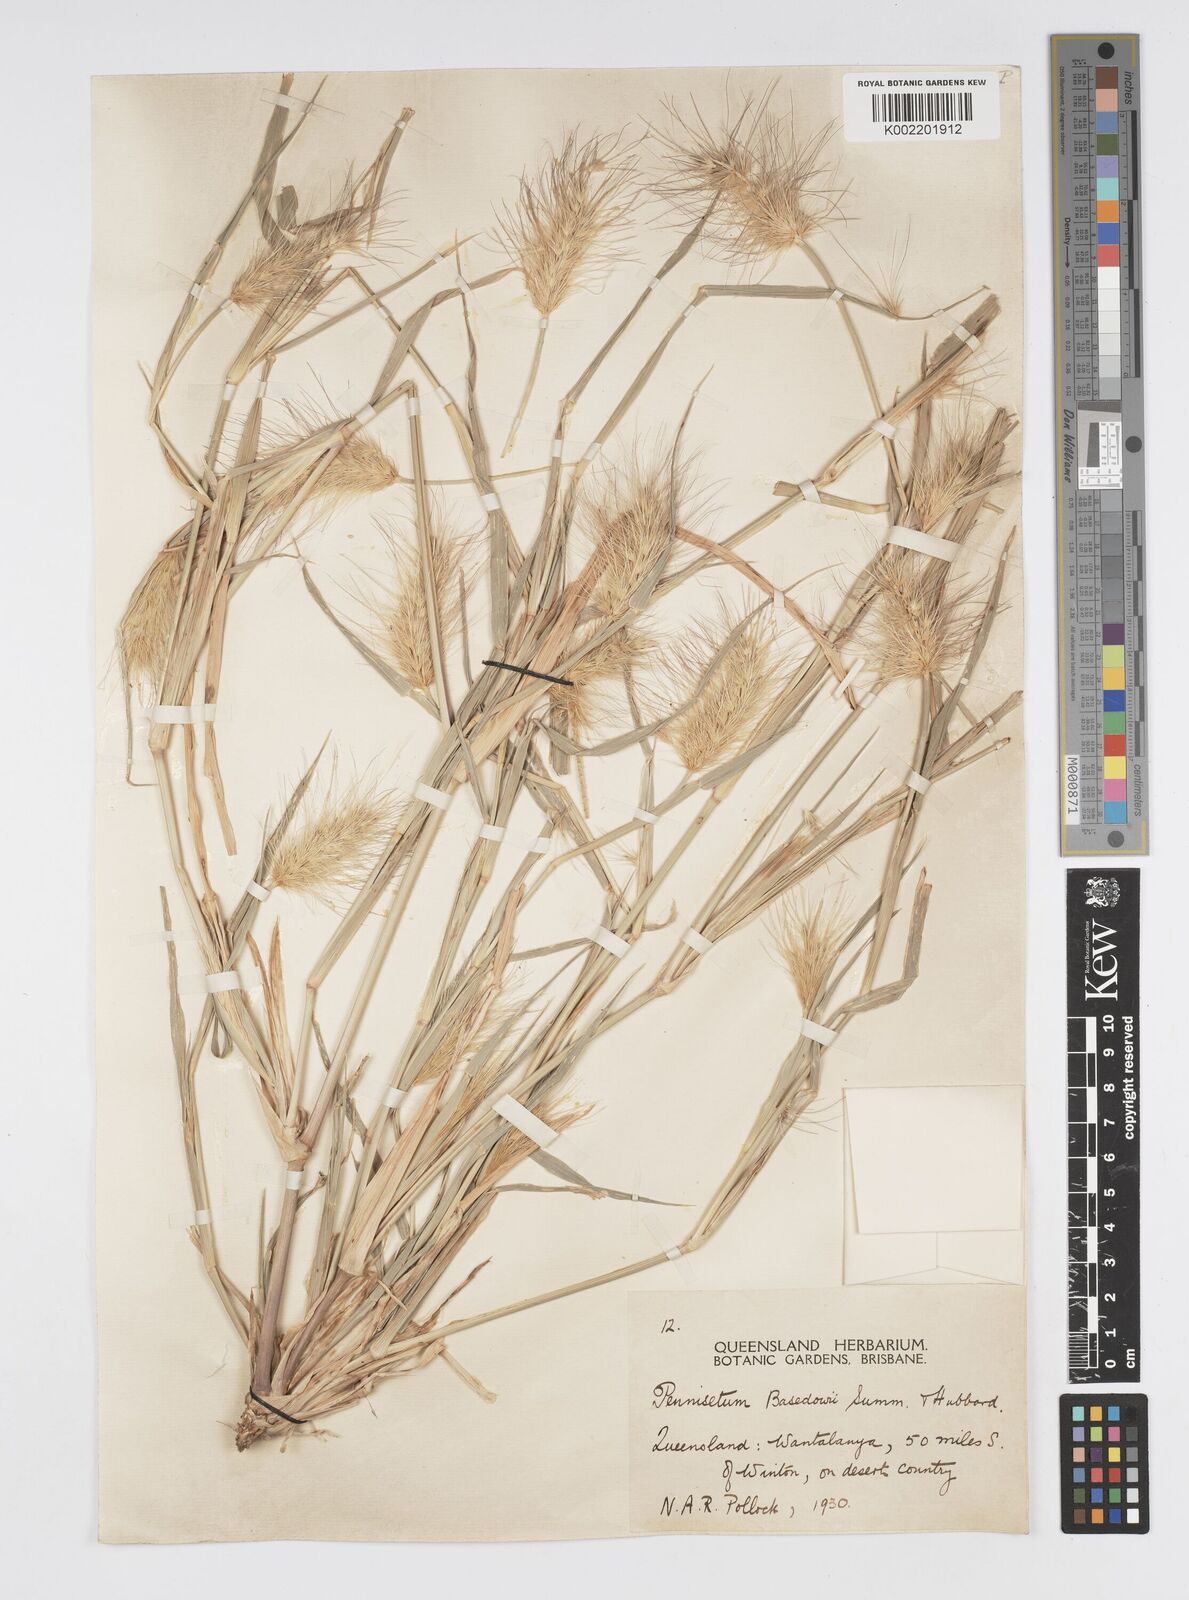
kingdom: Plantae
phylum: Tracheophyta
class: Liliopsida
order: Poales
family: Poaceae
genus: Cenchrus
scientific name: Cenchrus basedowii
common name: Asbestos grass
